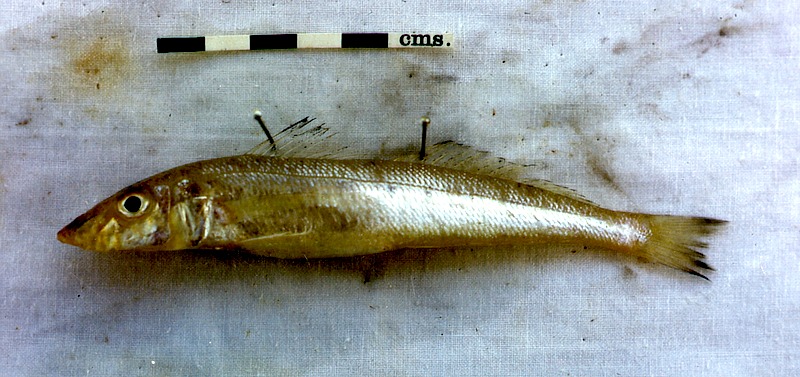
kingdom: Animalia
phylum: Chordata
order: Perciformes
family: Sillaginidae
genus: Sillago
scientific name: Sillago sihama
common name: Silver sillago
